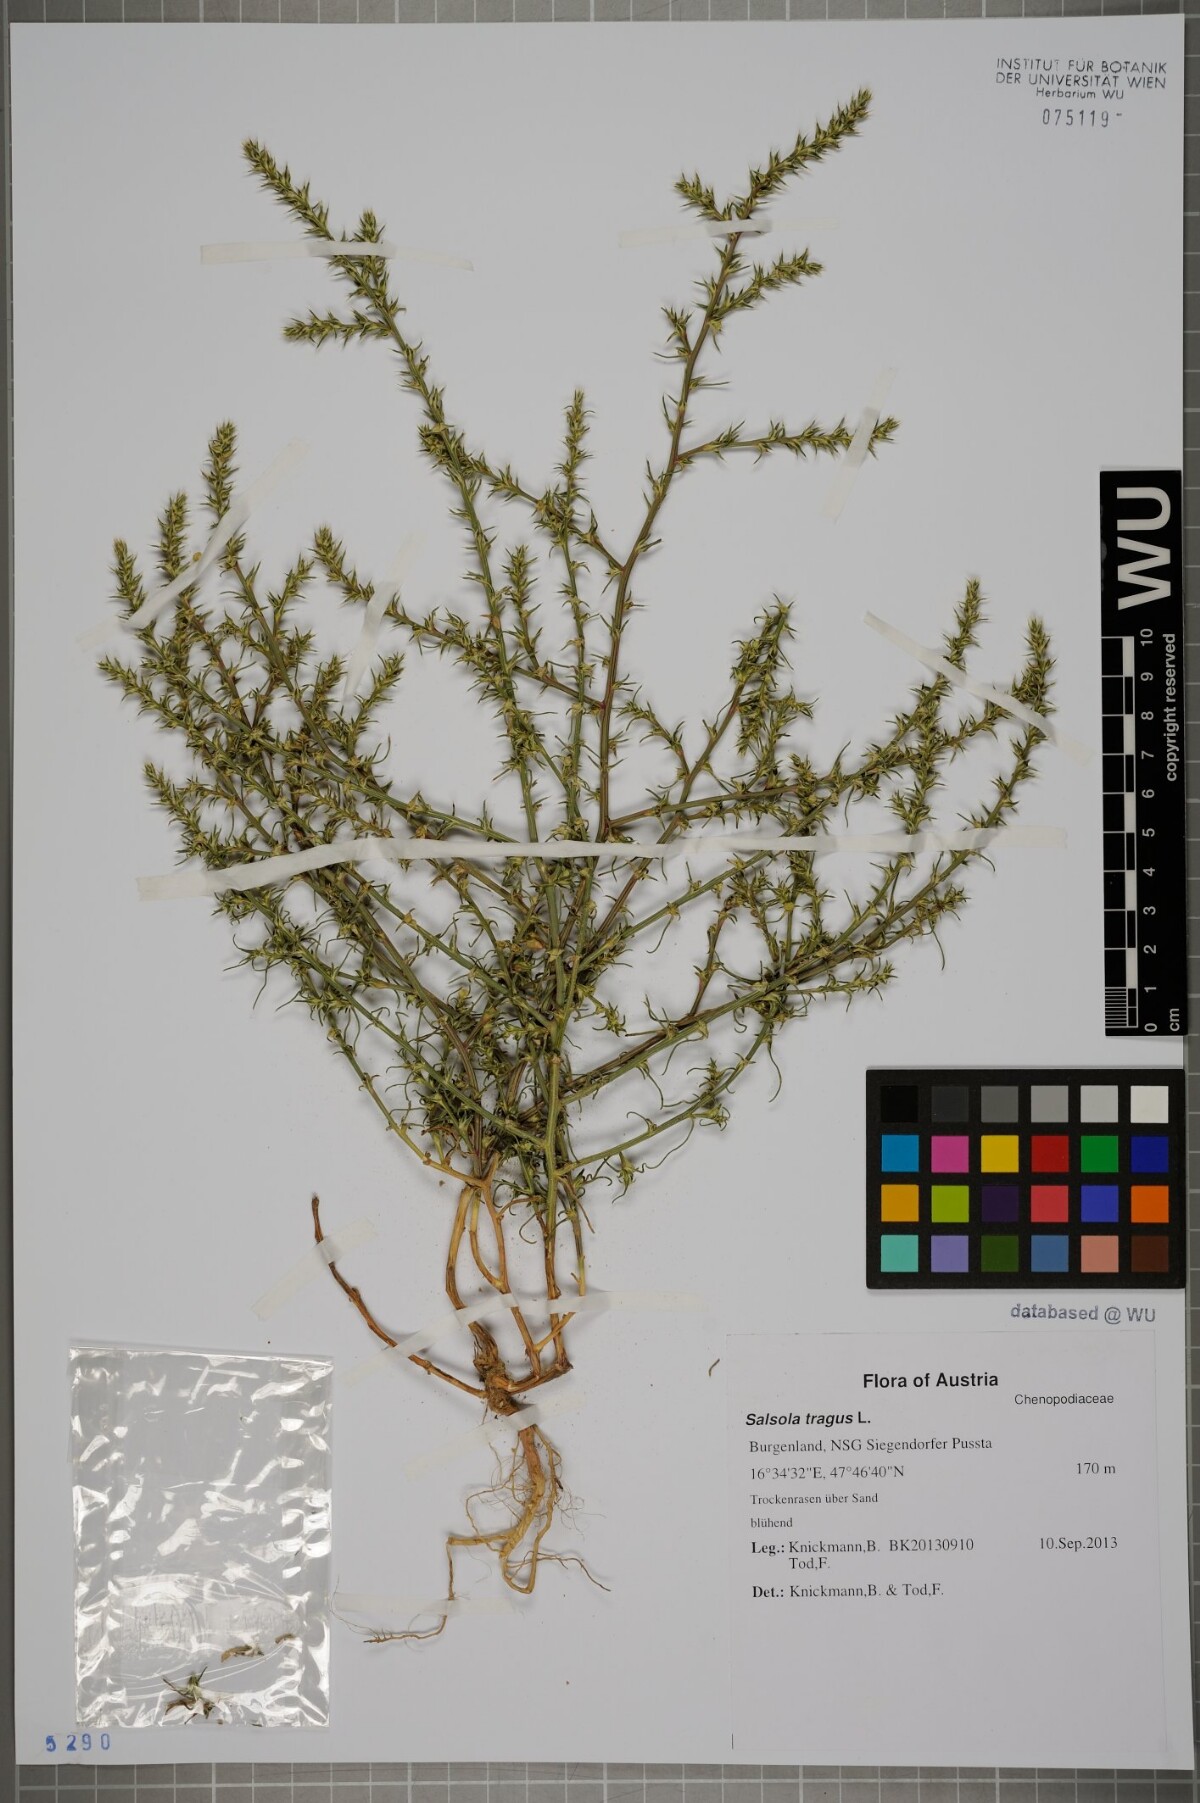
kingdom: Plantae
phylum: Tracheophyta
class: Magnoliopsida
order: Caryophyllales
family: Amaranthaceae
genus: Salsola
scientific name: Salsola tragus
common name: Prickly russian thistle
